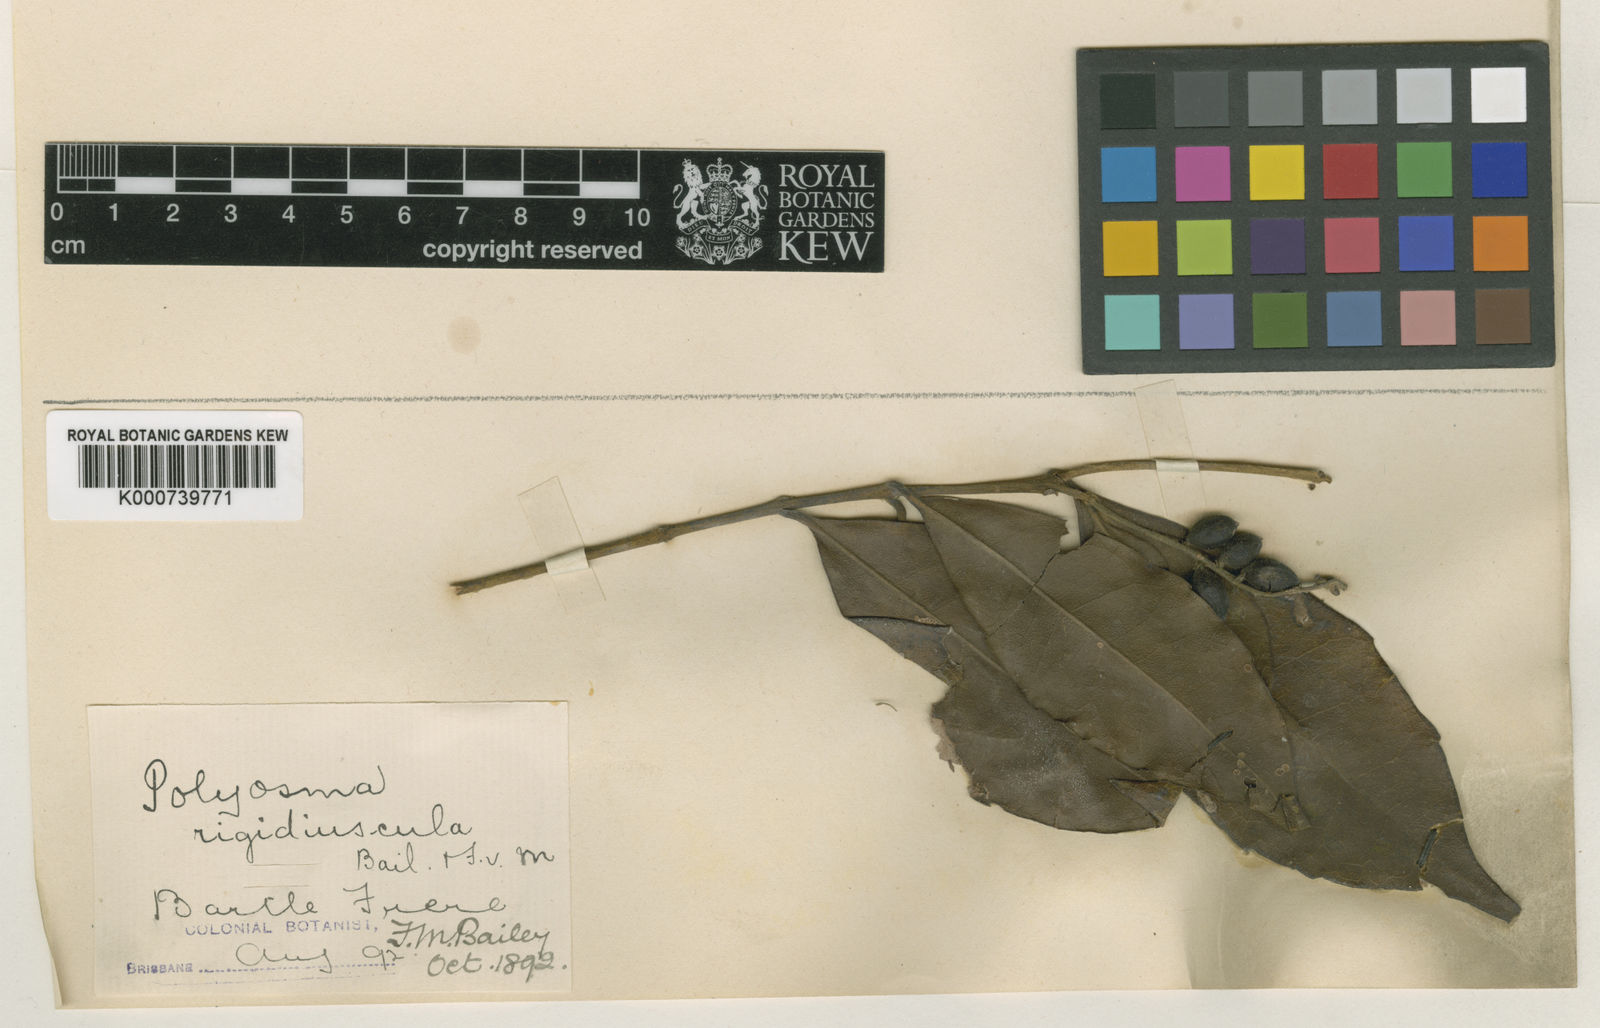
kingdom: Plantae
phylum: Tracheophyta
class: Magnoliopsida
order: Escalloniales
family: Escalloniaceae
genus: Polyosma
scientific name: Polyosma rigidiuscula
